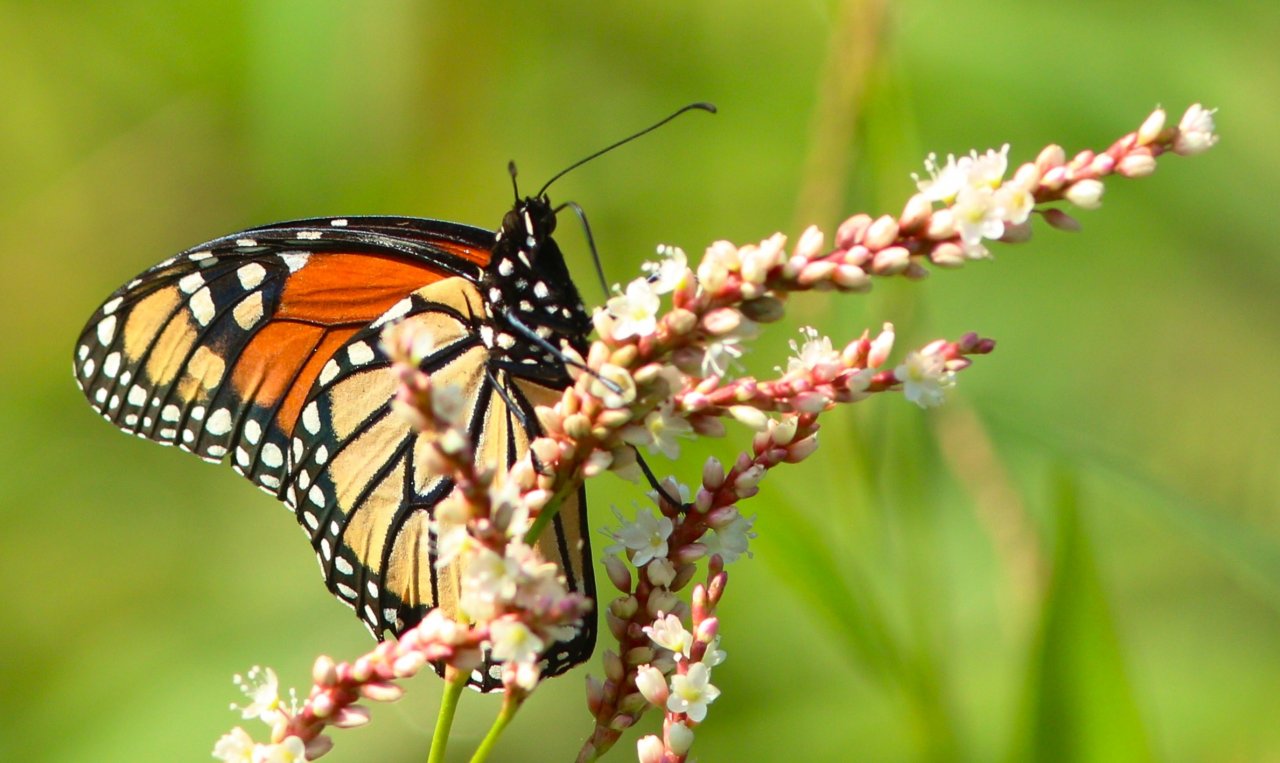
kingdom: Animalia
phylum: Arthropoda
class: Insecta
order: Lepidoptera
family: Nymphalidae
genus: Danaus
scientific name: Danaus plexippus
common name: Monarch
